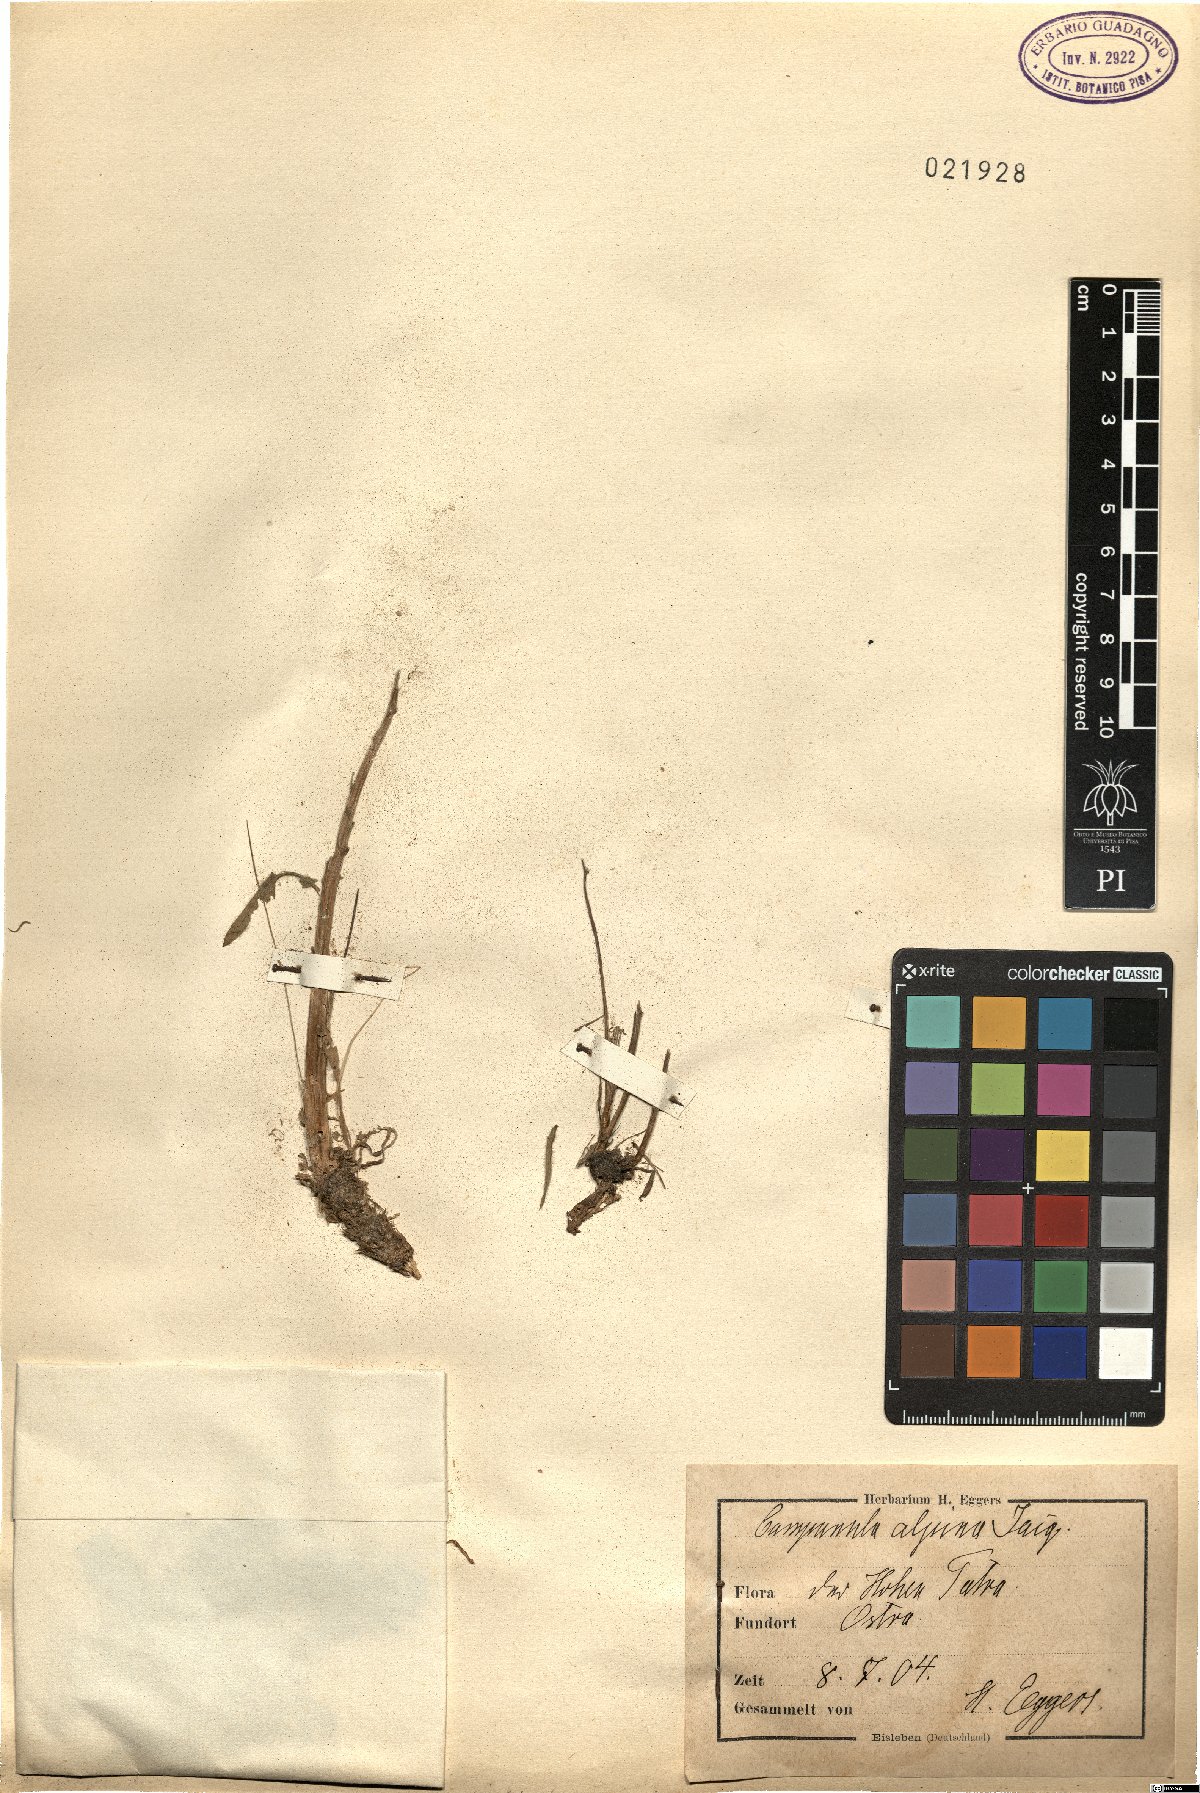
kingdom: Plantae
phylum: Tracheophyta
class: Magnoliopsida
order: Asterales
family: Campanulaceae
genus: Campanula
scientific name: Campanula alpina
